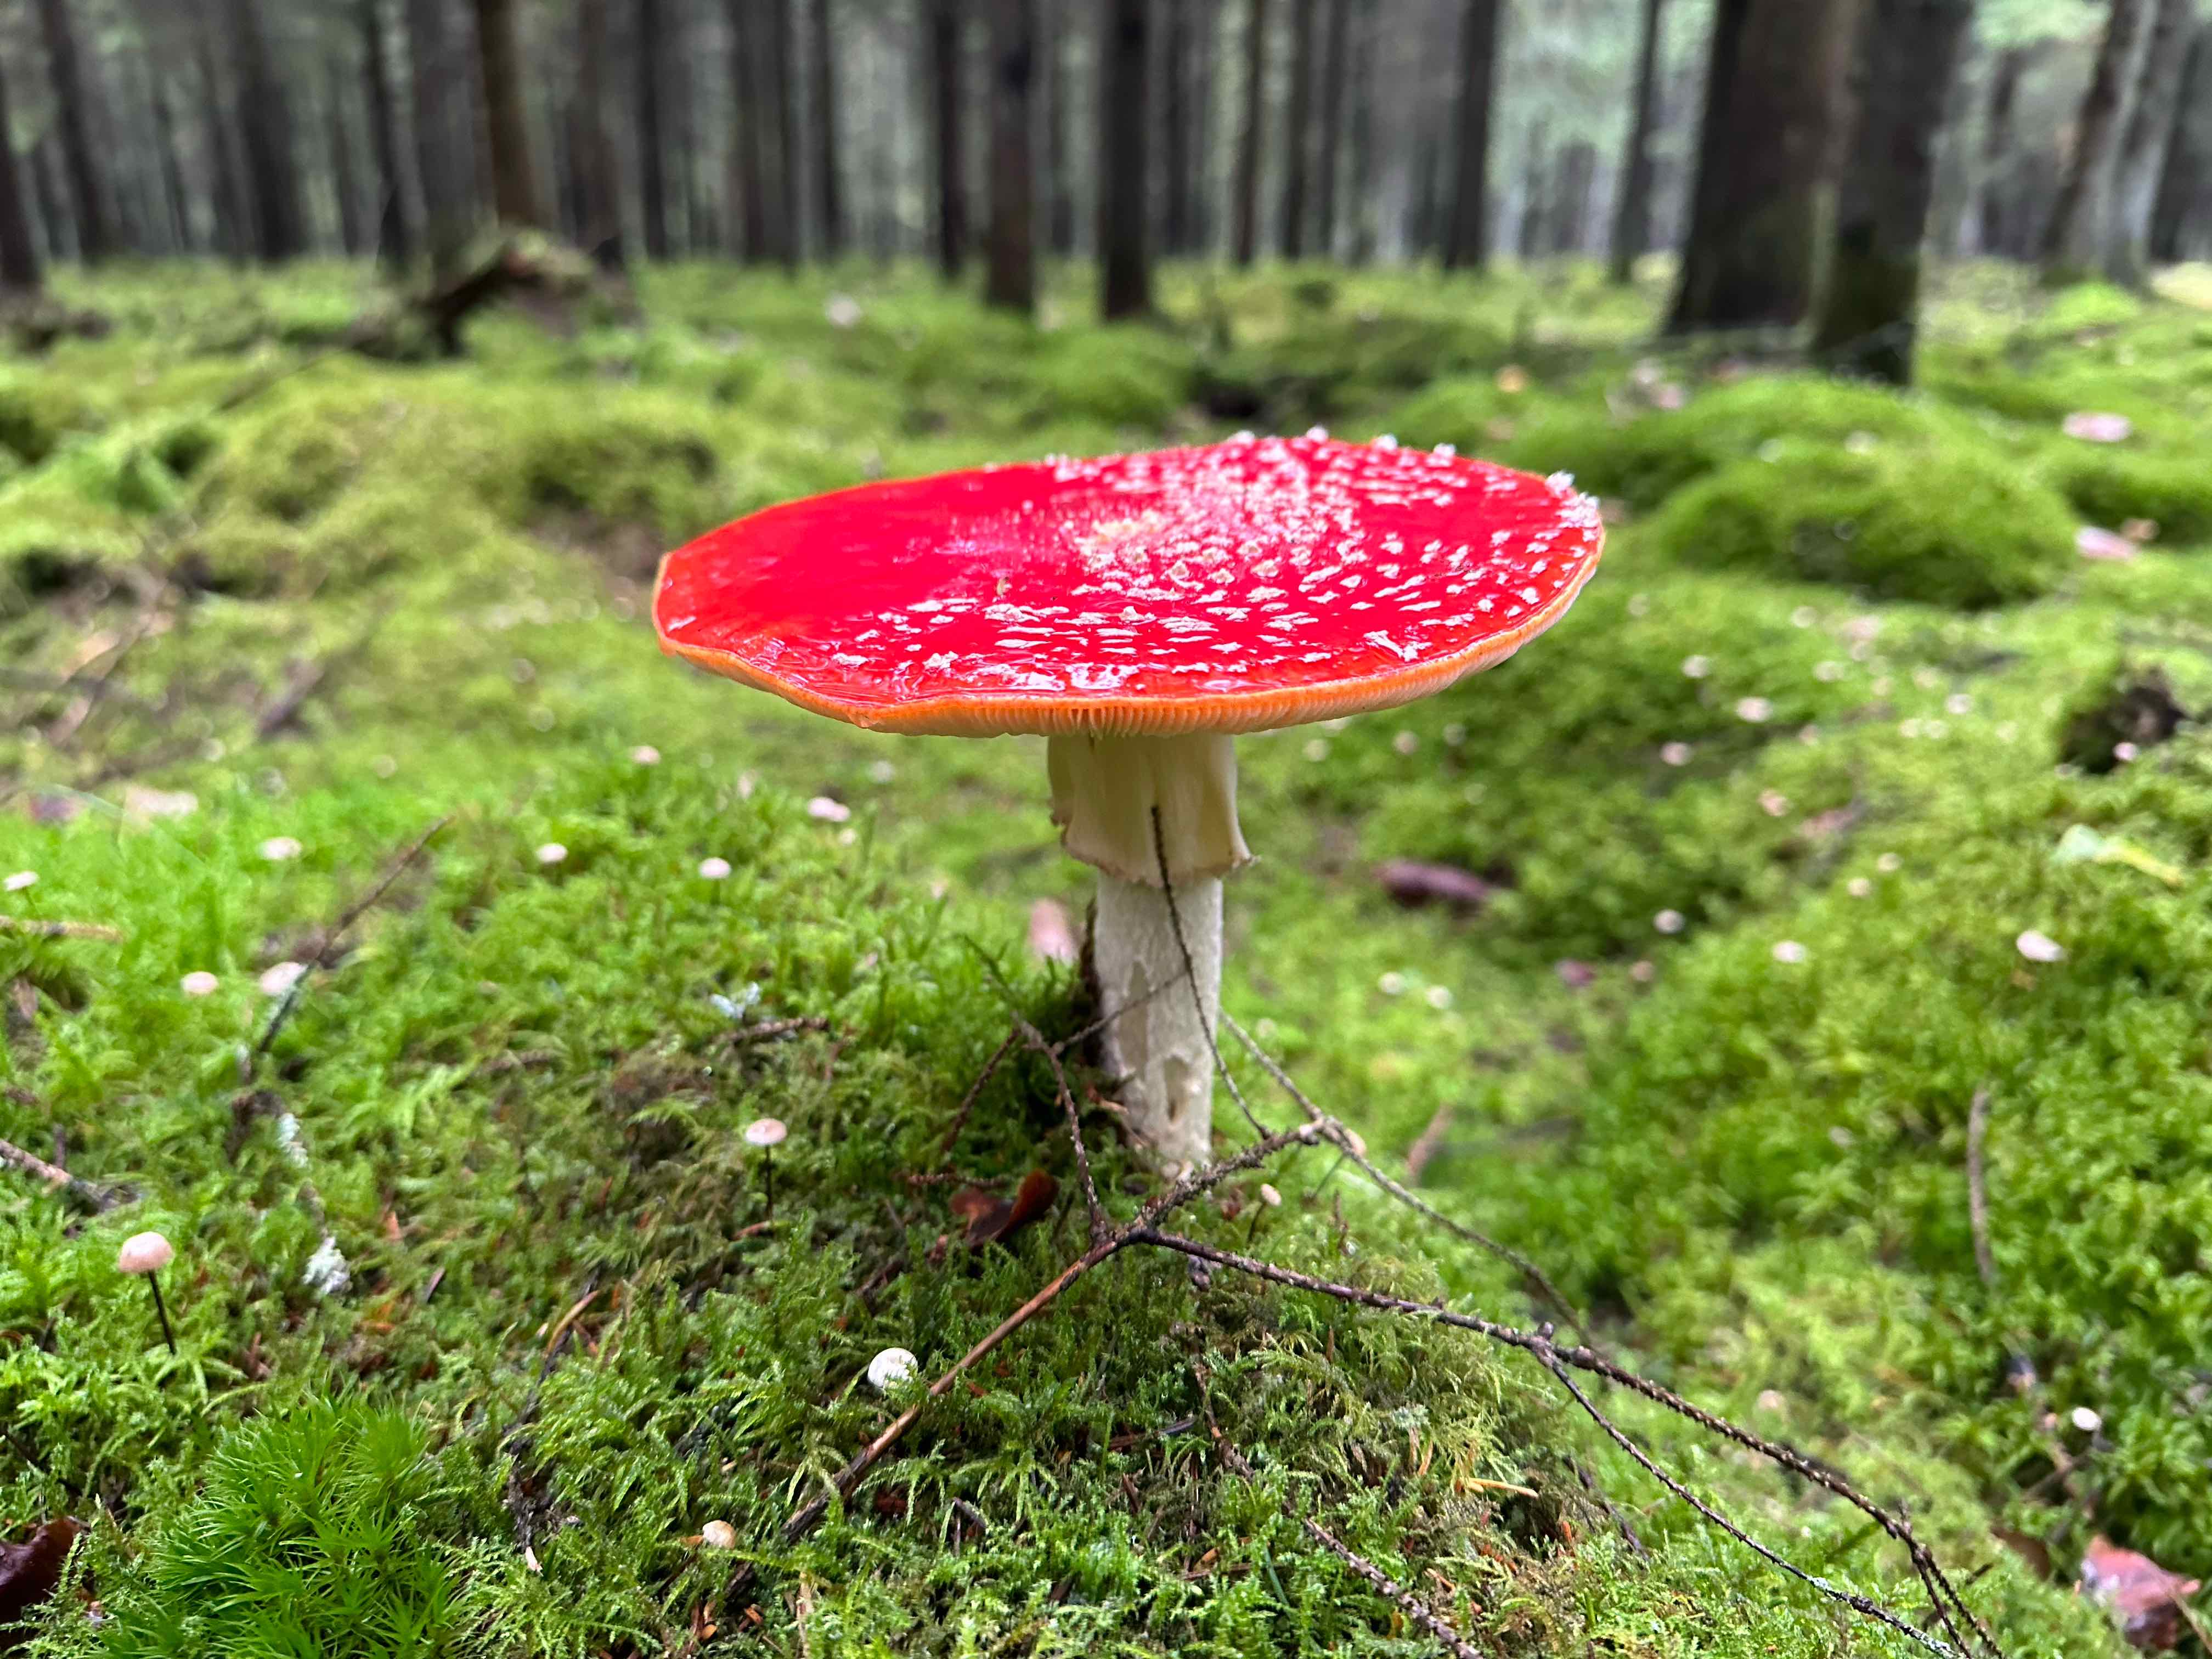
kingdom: Fungi
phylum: Basidiomycota
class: Agaricomycetes
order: Agaricales
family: Amanitaceae
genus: Amanita
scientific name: Amanita muscaria
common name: rød fluesvamp
